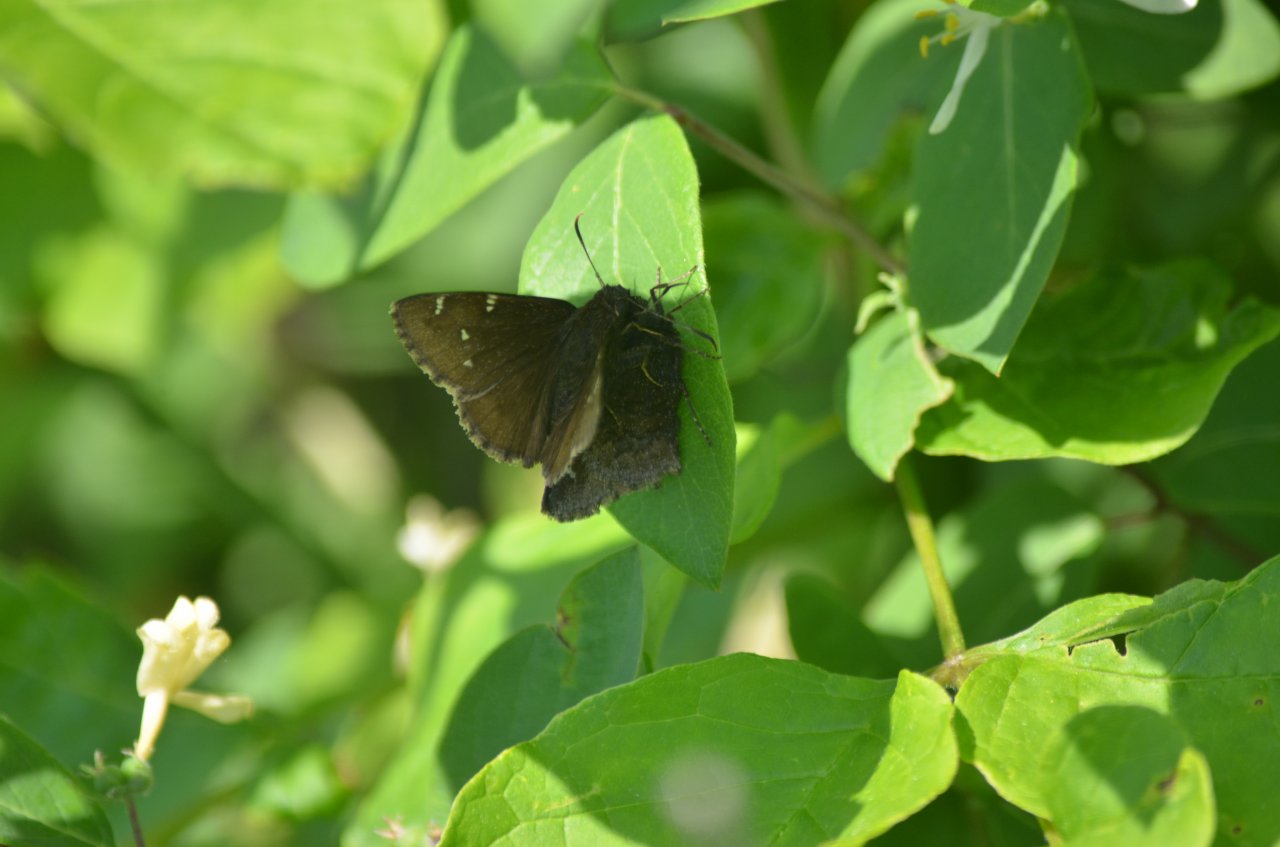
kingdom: Animalia
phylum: Arthropoda
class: Insecta
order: Lepidoptera
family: Hesperiidae
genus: Autochton
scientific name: Autochton
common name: Northern Cloudywing
